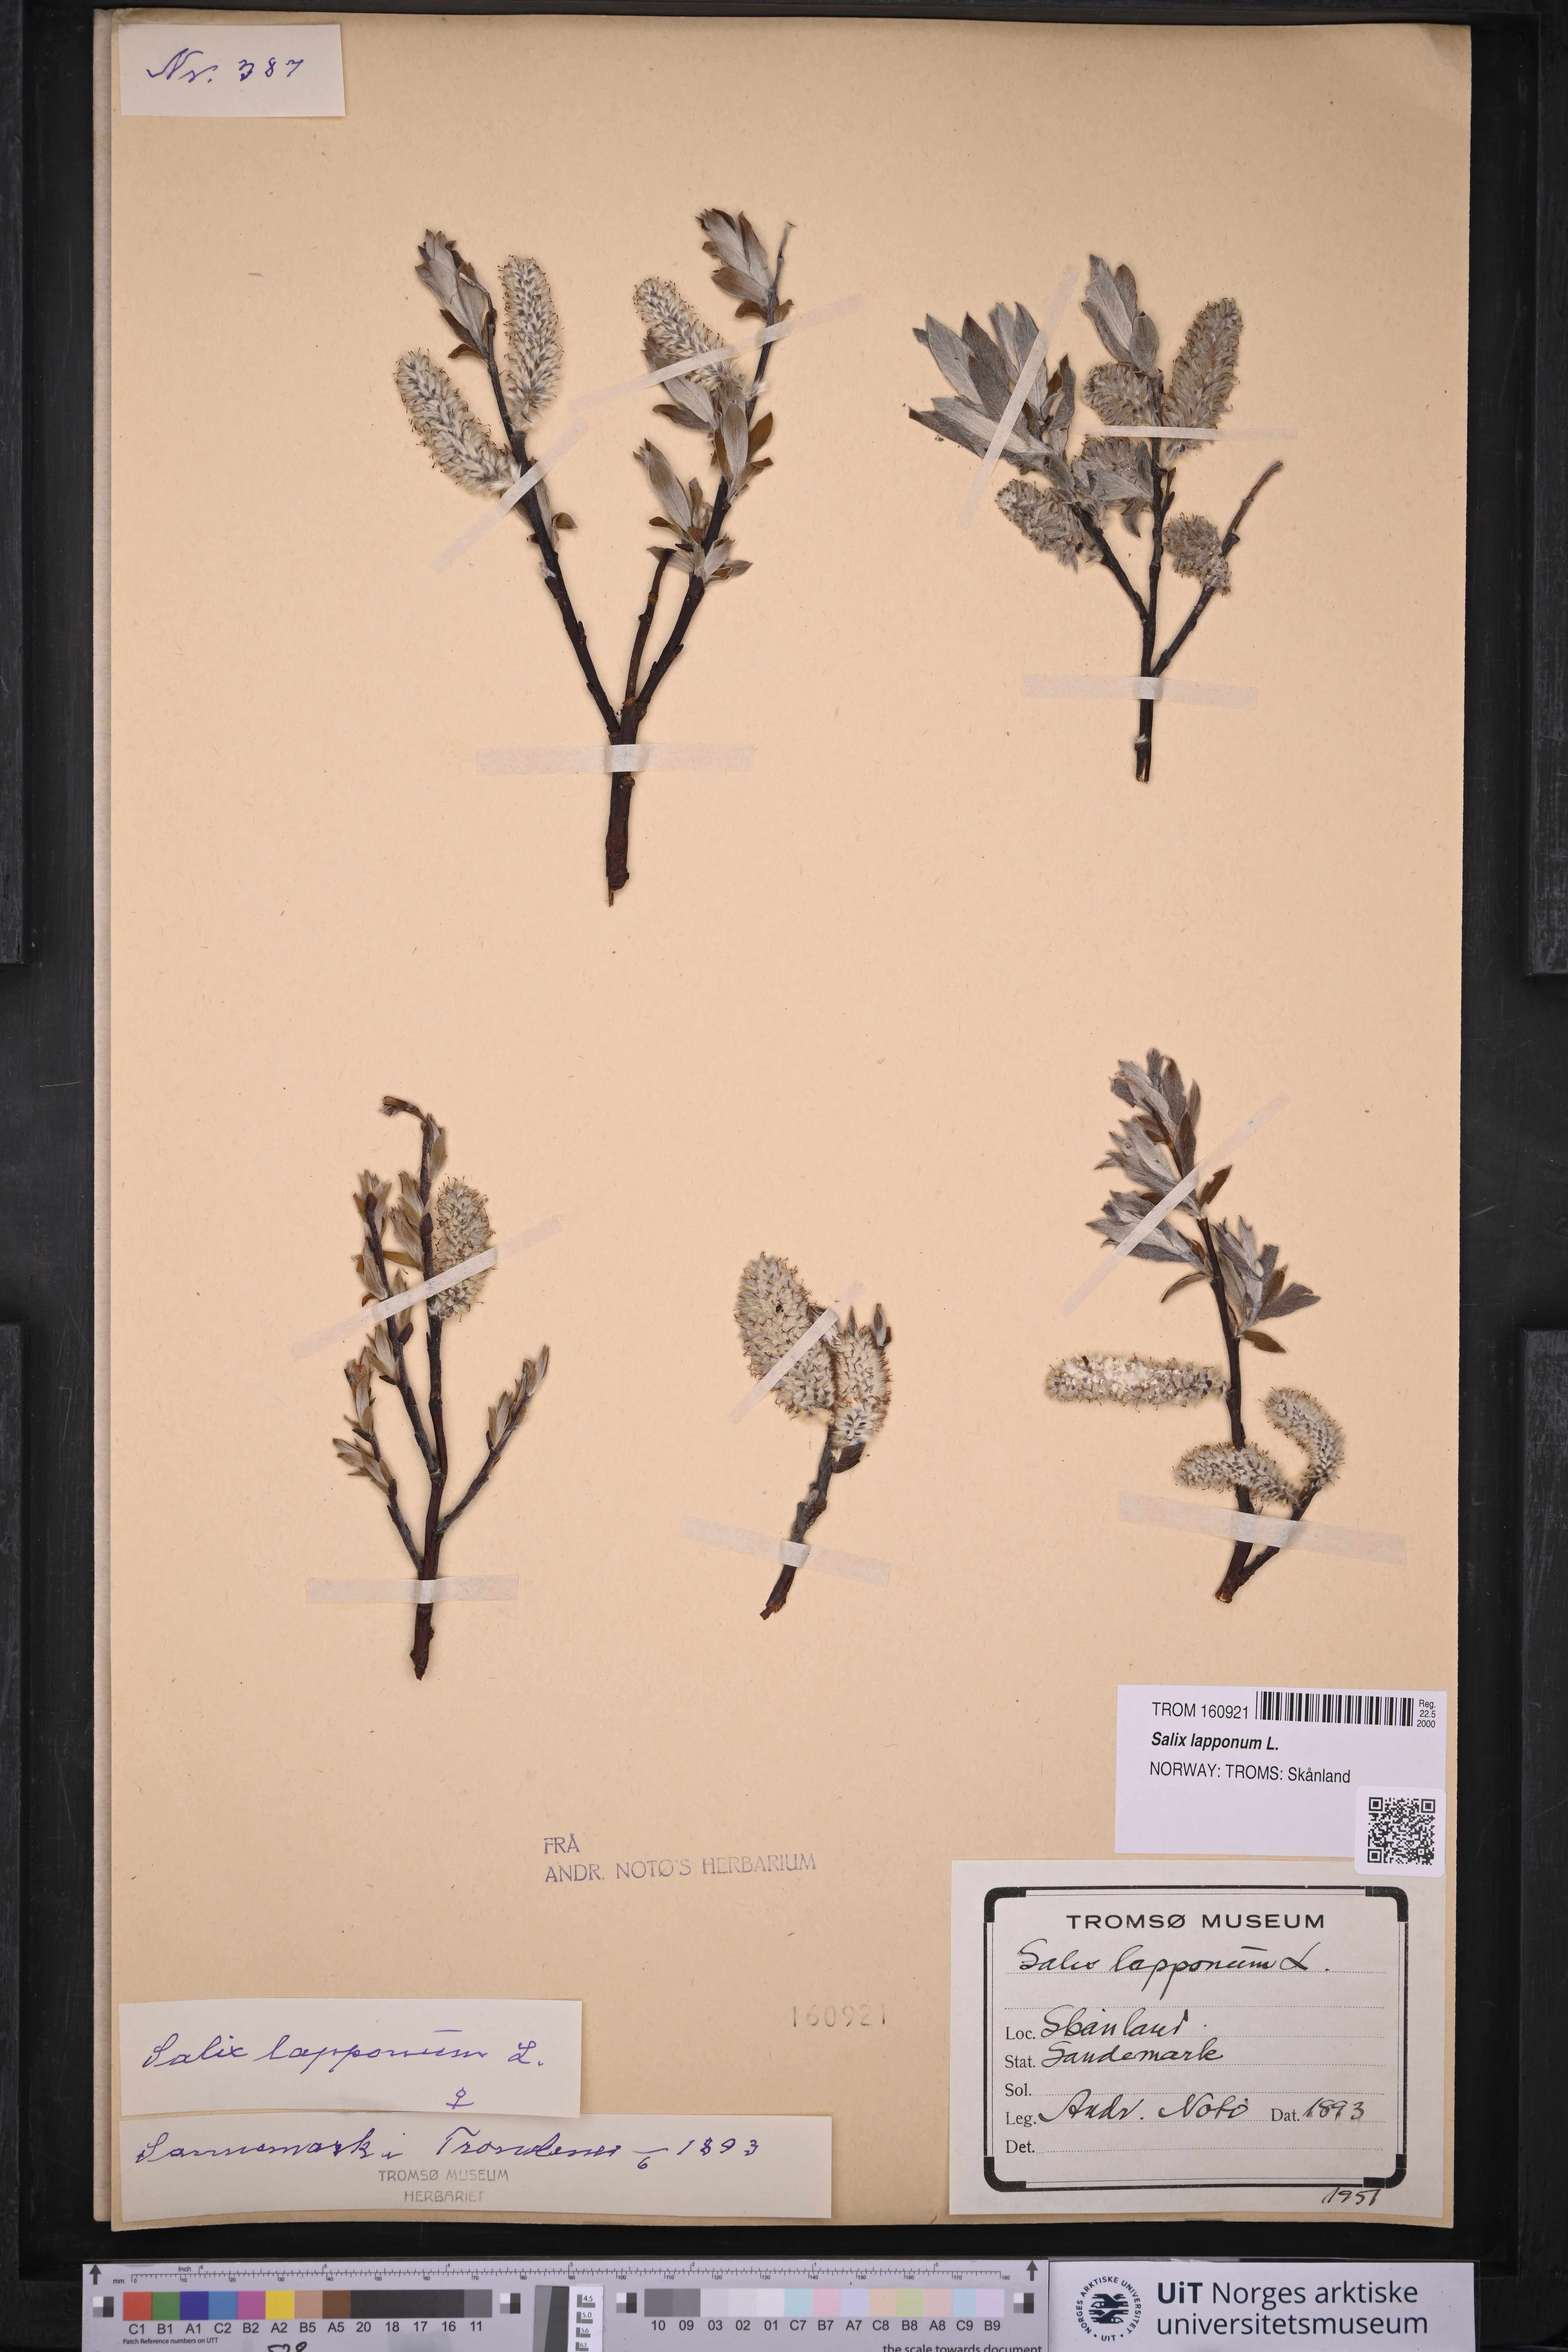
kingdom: Plantae
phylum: Tracheophyta
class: Magnoliopsida
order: Malpighiales
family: Salicaceae
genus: Salix
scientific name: Salix lapponum
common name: Downy willow
